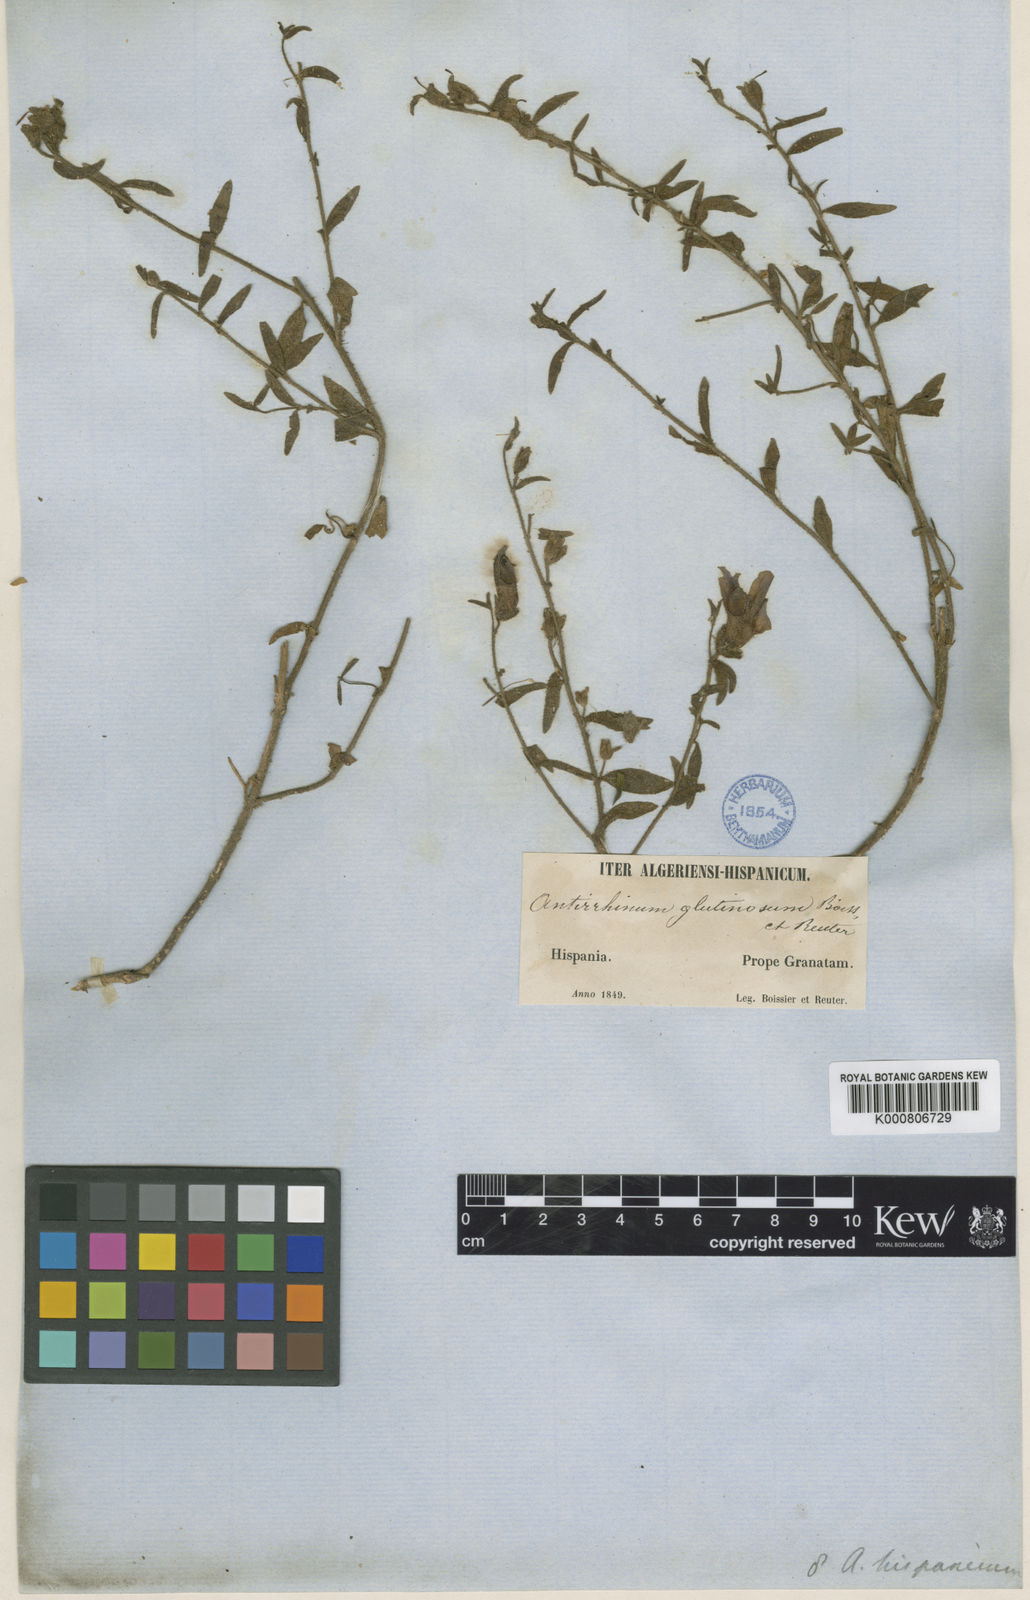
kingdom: Plantae
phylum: Tracheophyta
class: Magnoliopsida
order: Lamiales
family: Plantaginaceae
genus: Antirrhinum
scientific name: Antirrhinum hispanicum
